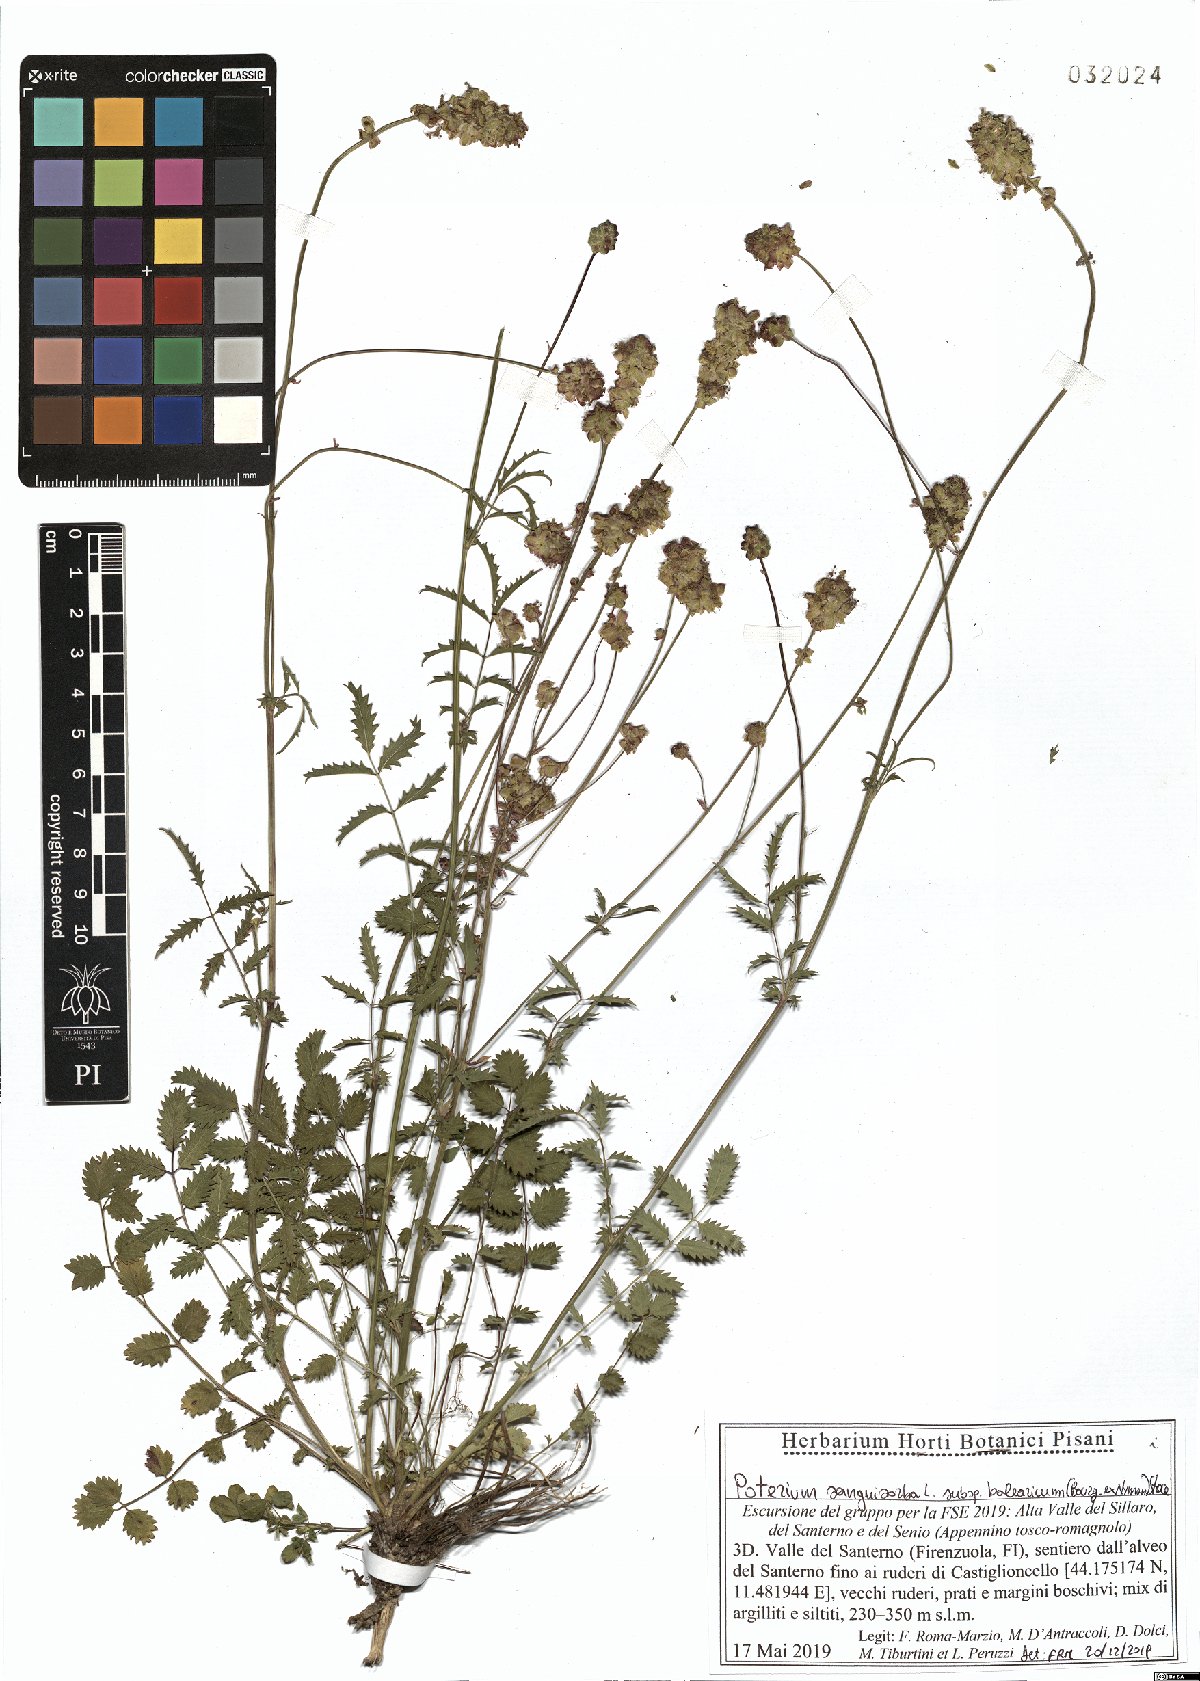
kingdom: Plantae
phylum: Tracheophyta
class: Magnoliopsida
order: Rosales
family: Rosaceae
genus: Poterium
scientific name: Poterium sanguisorba
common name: Salad burnet
